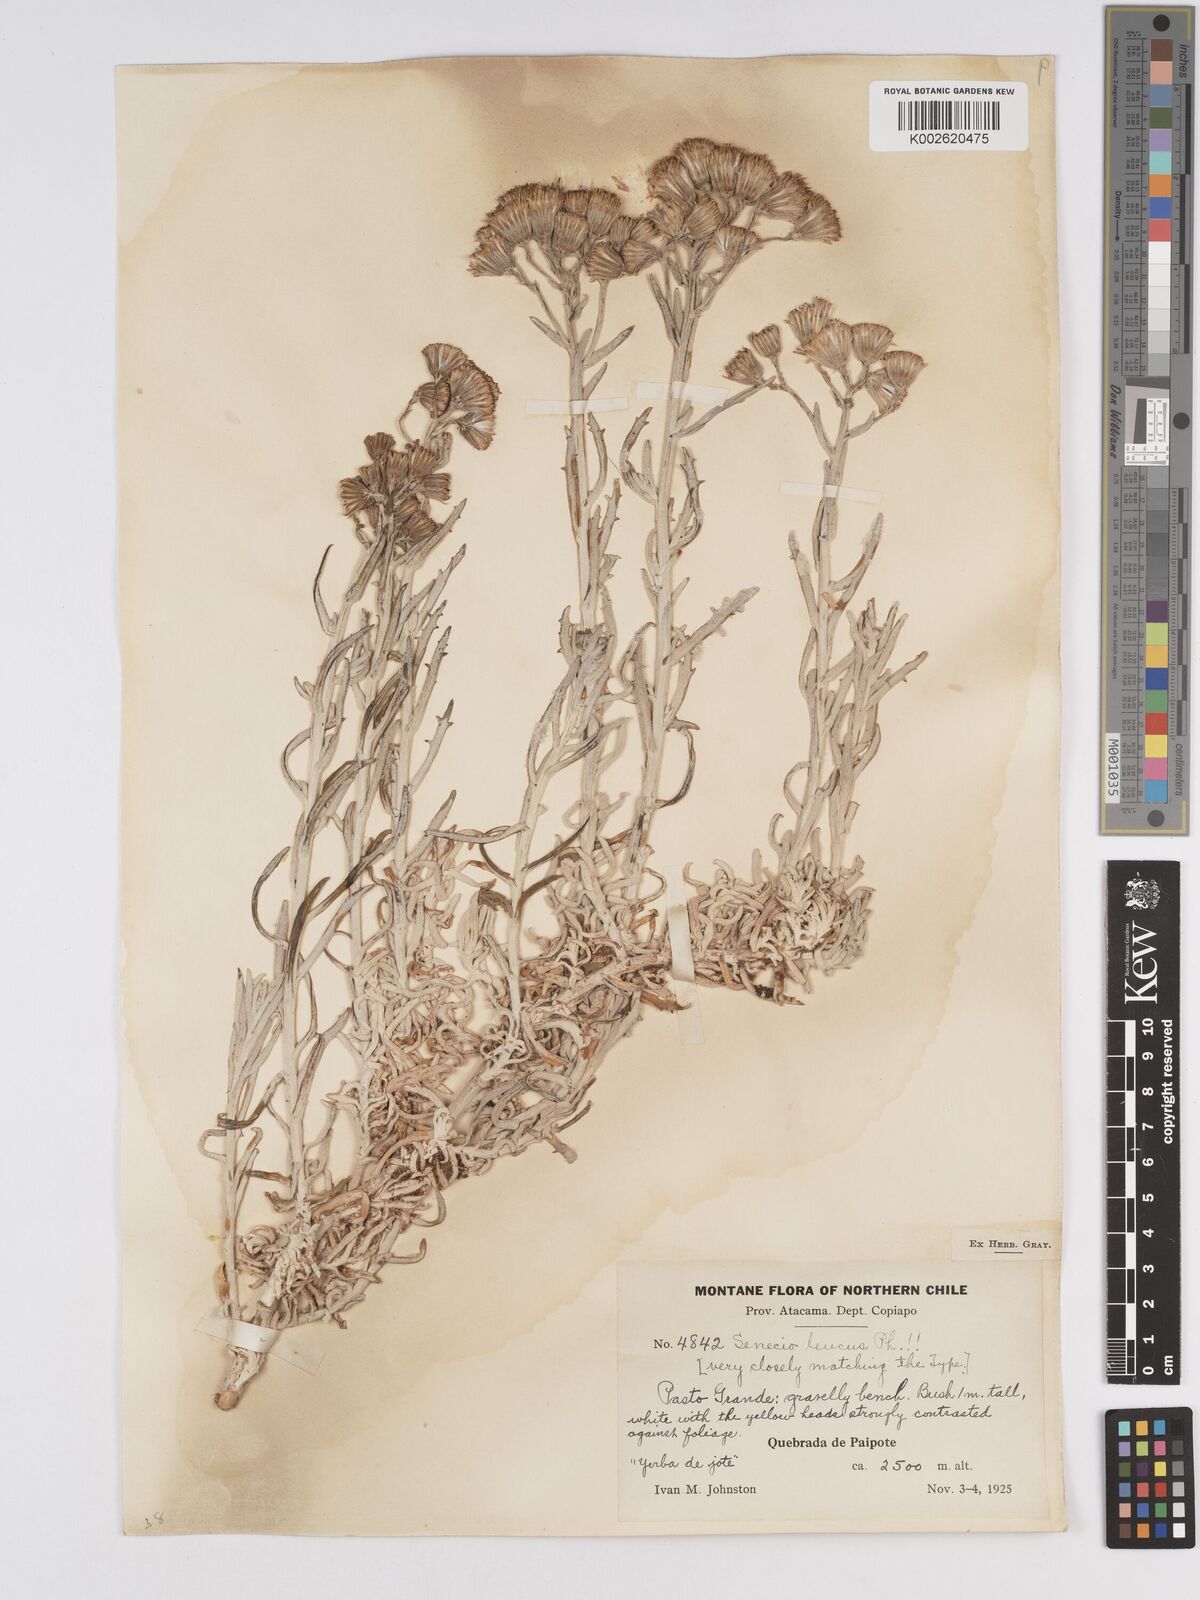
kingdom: Plantae
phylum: Tracheophyta
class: Magnoliopsida
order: Asterales
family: Asteraceae
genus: Senecio
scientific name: Senecio leucus
